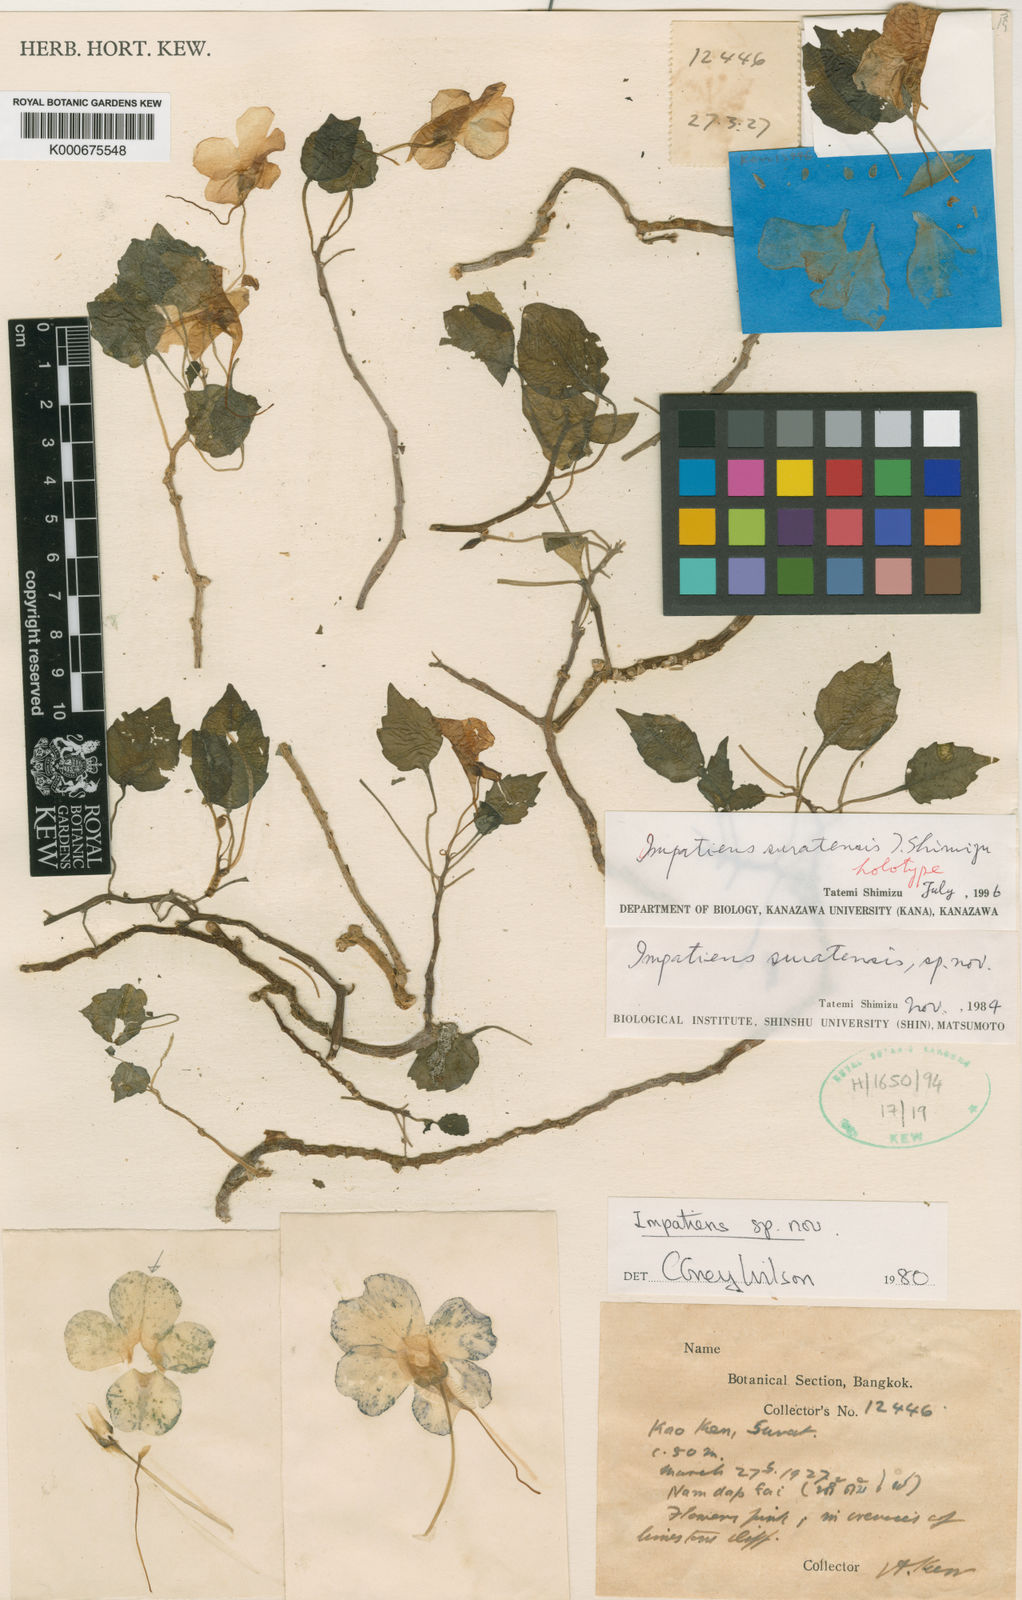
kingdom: Plantae
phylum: Tracheophyta
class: Magnoliopsida
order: Ericales
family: Balsaminaceae
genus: Impatiens
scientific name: Impatiens
